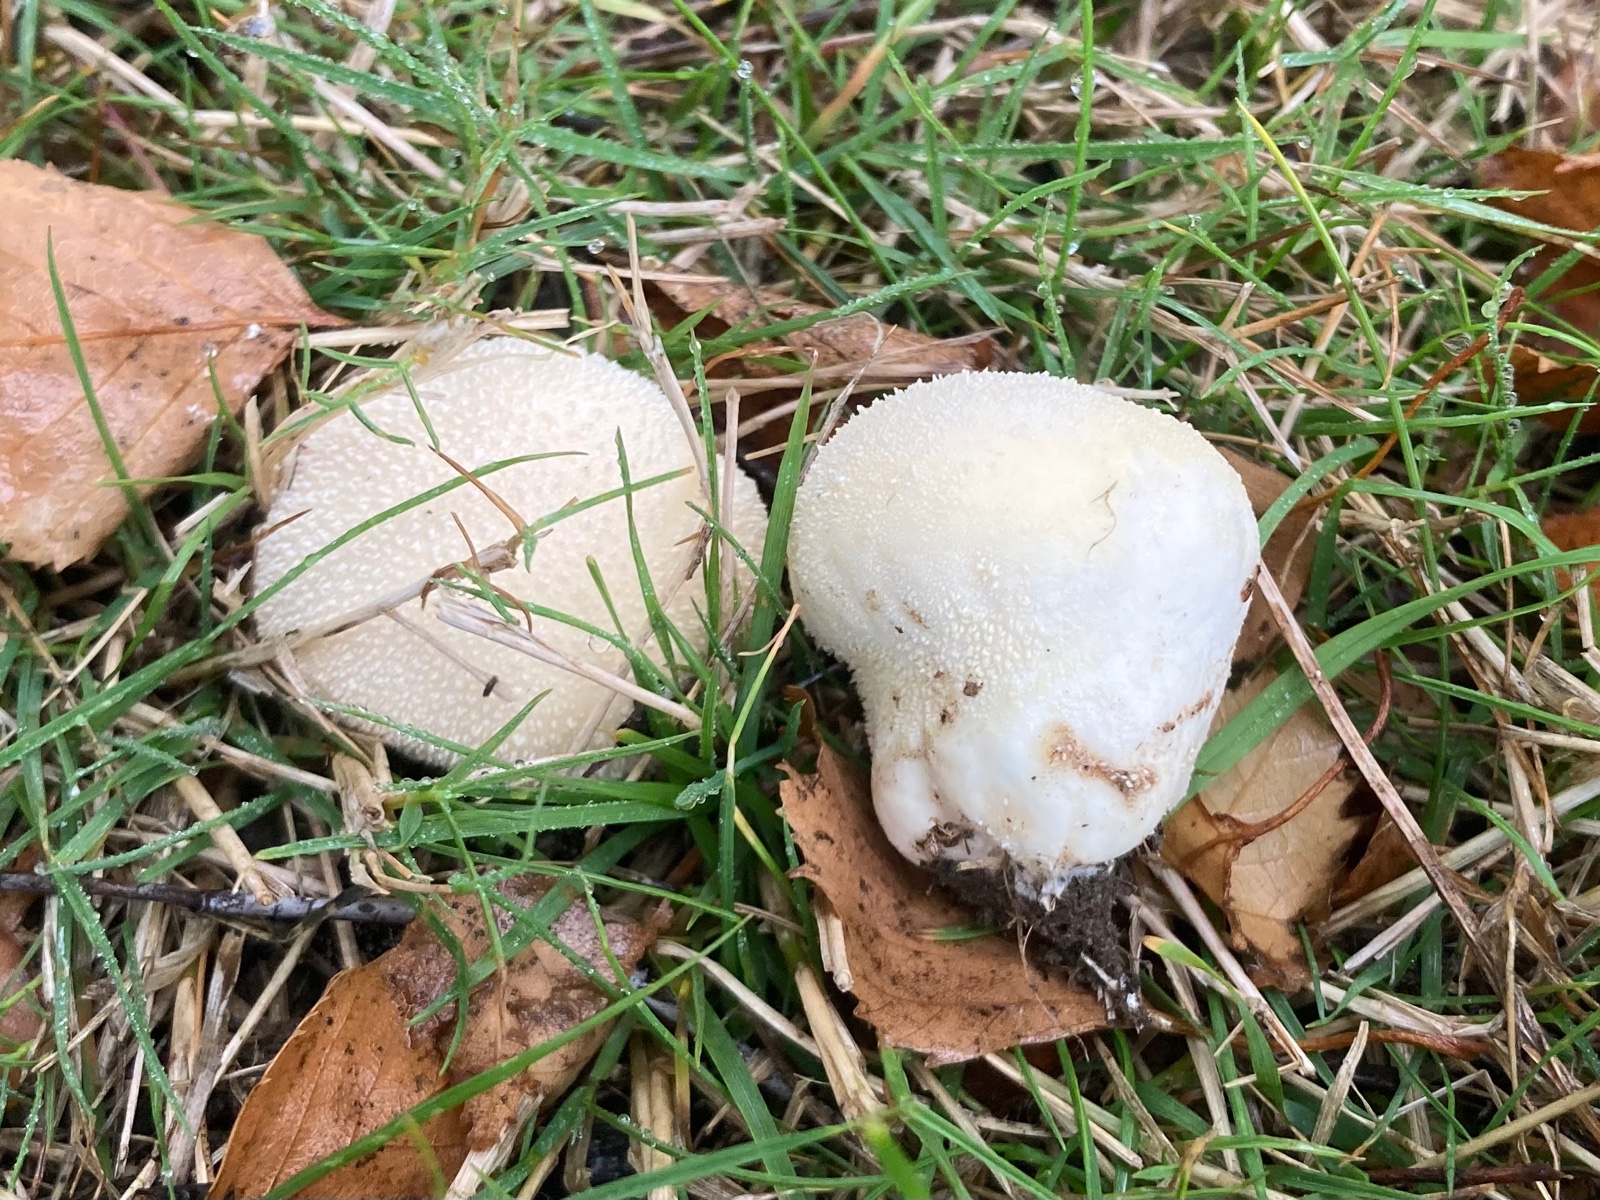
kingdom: Fungi
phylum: Basidiomycota
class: Agaricomycetes
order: Agaricales
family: Lycoperdaceae
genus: Lycoperdon
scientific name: Lycoperdon pratense
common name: flad støvbold
